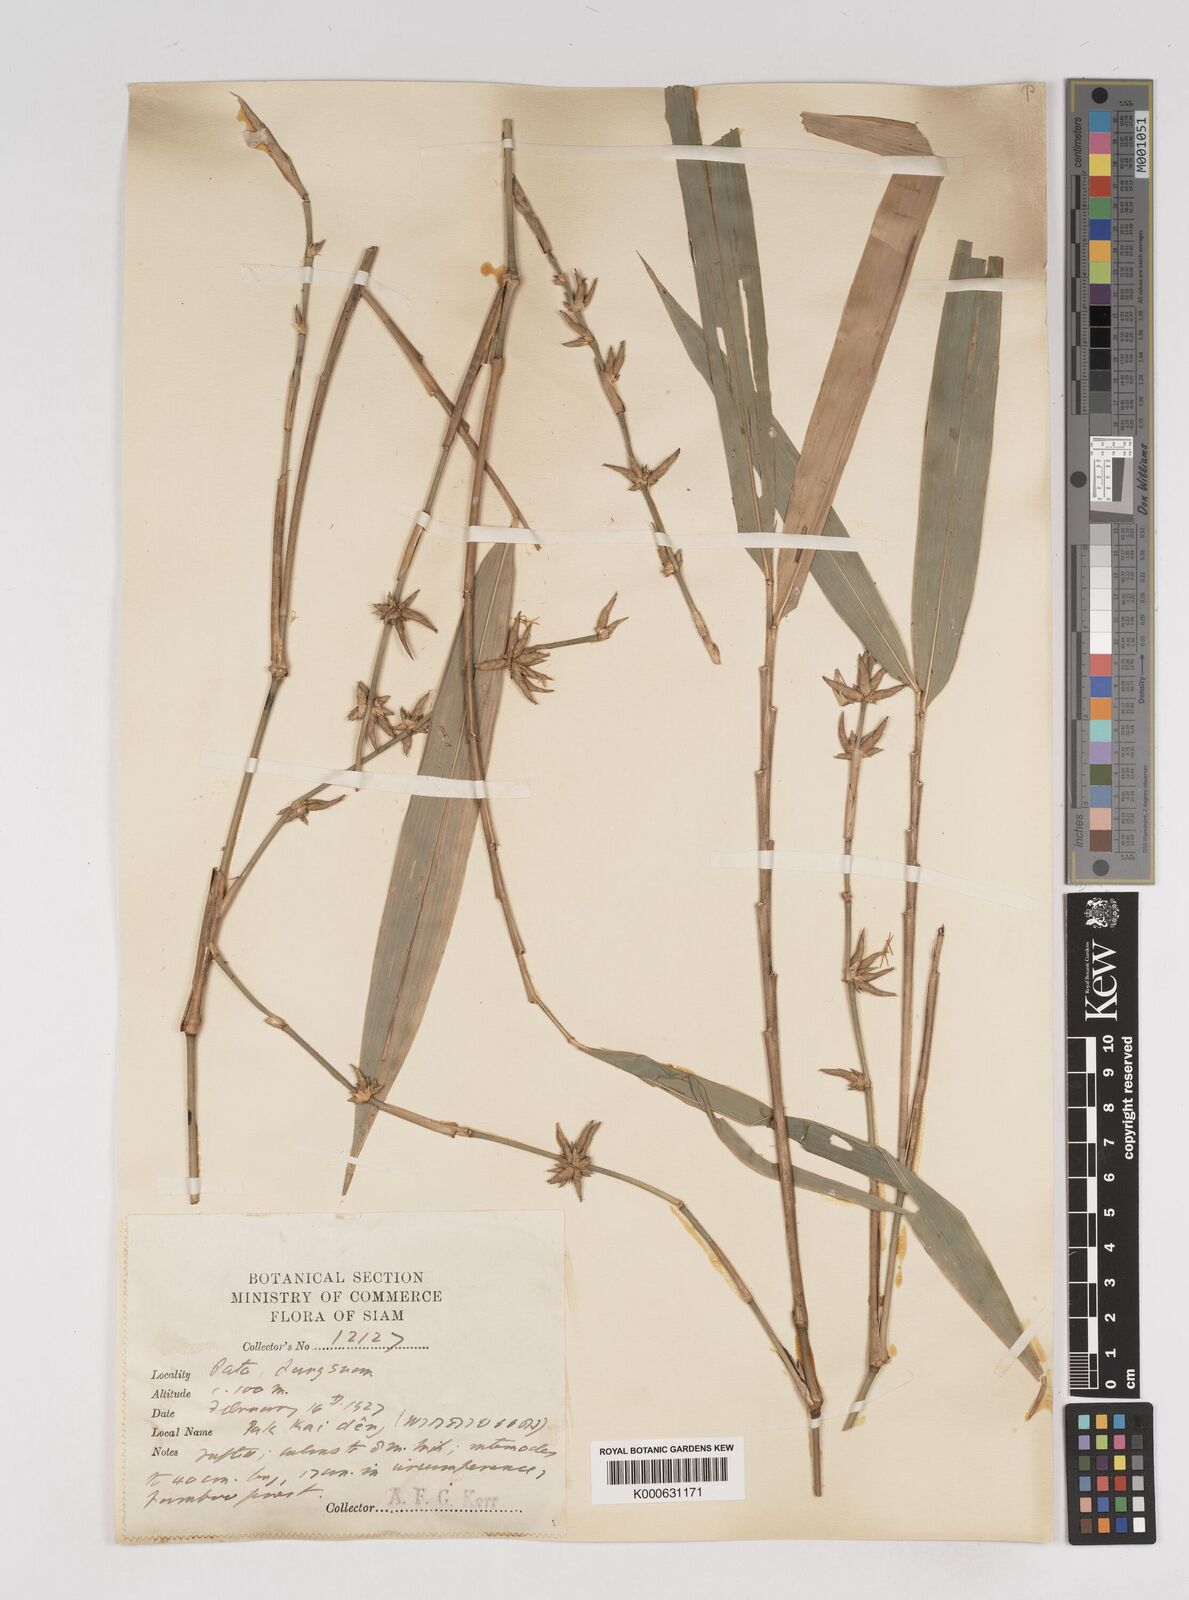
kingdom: Plantae
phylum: Tracheophyta
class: Liliopsida
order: Poales
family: Poaceae
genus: Gigantochloa
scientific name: Gigantochloa
